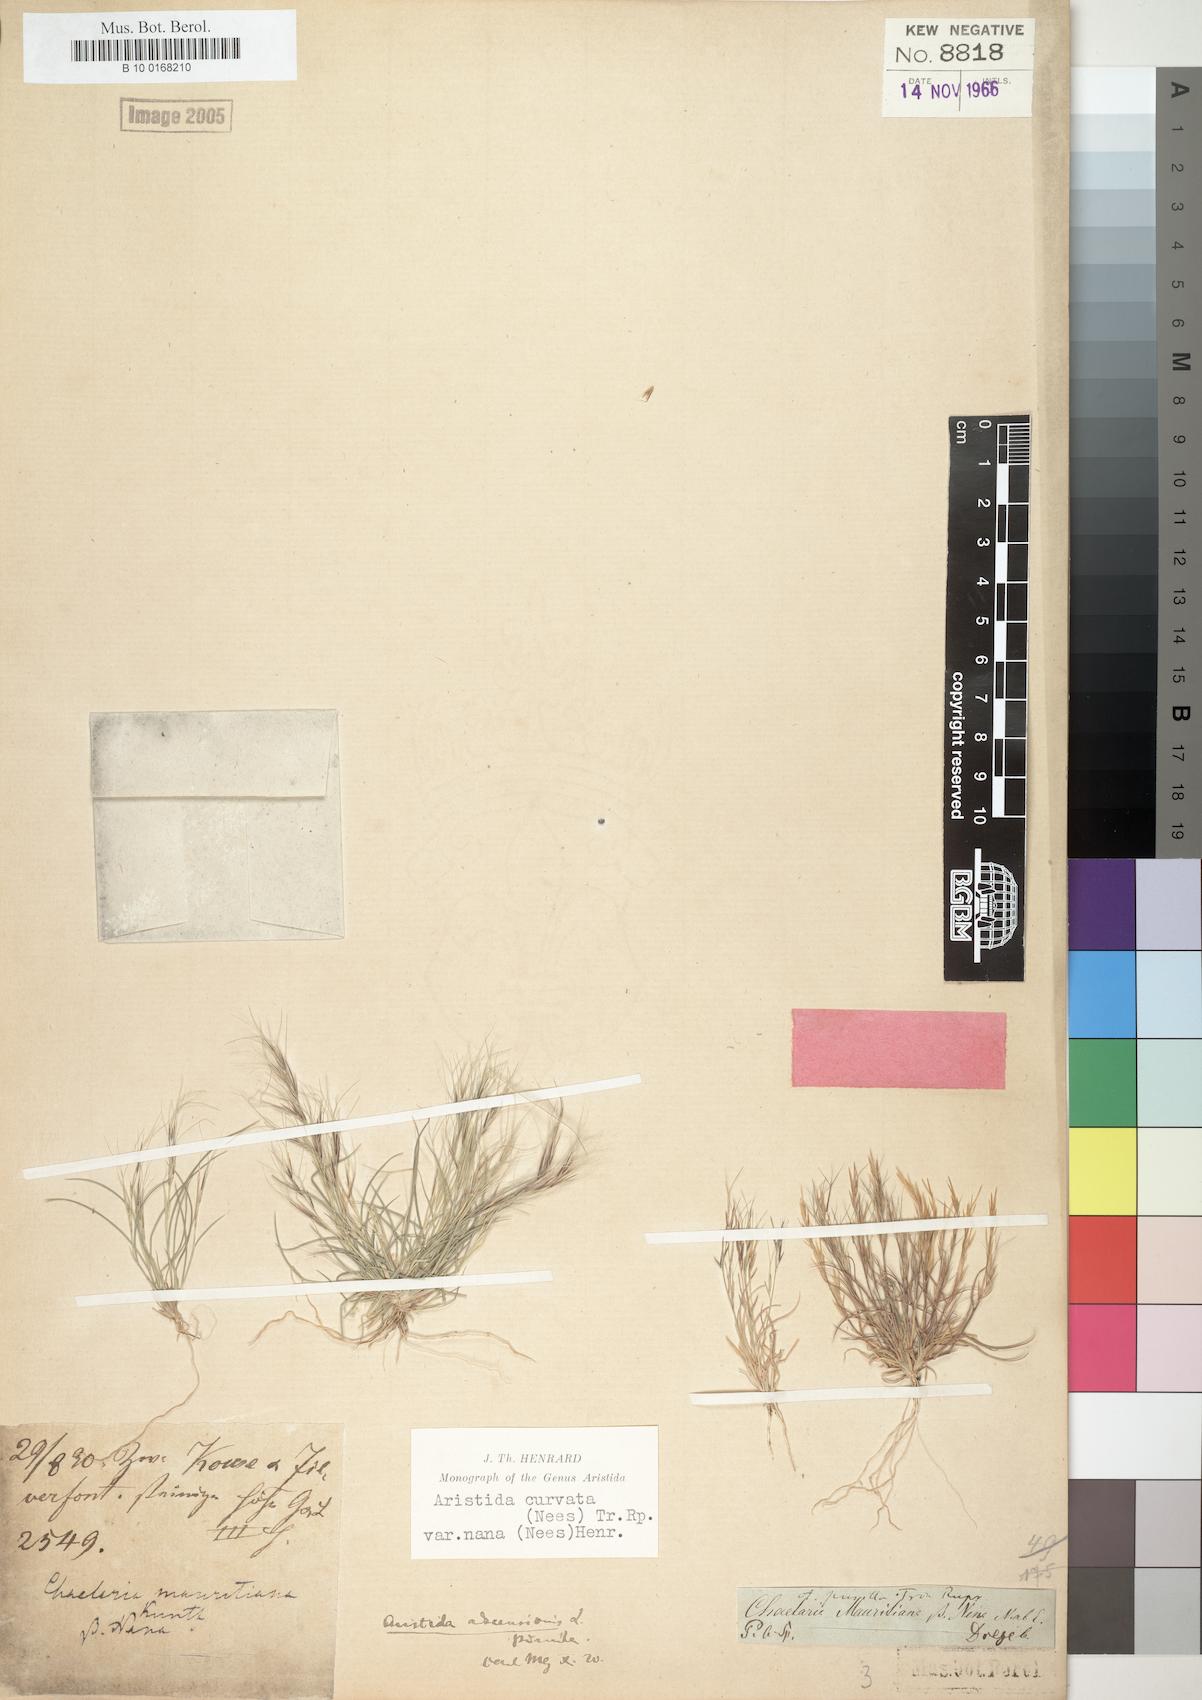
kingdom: Plantae
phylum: Tracheophyta
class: Liliopsida
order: Poales
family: Poaceae
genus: Aristida
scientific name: Aristida adscensionis
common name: Sixweeks threeawn
